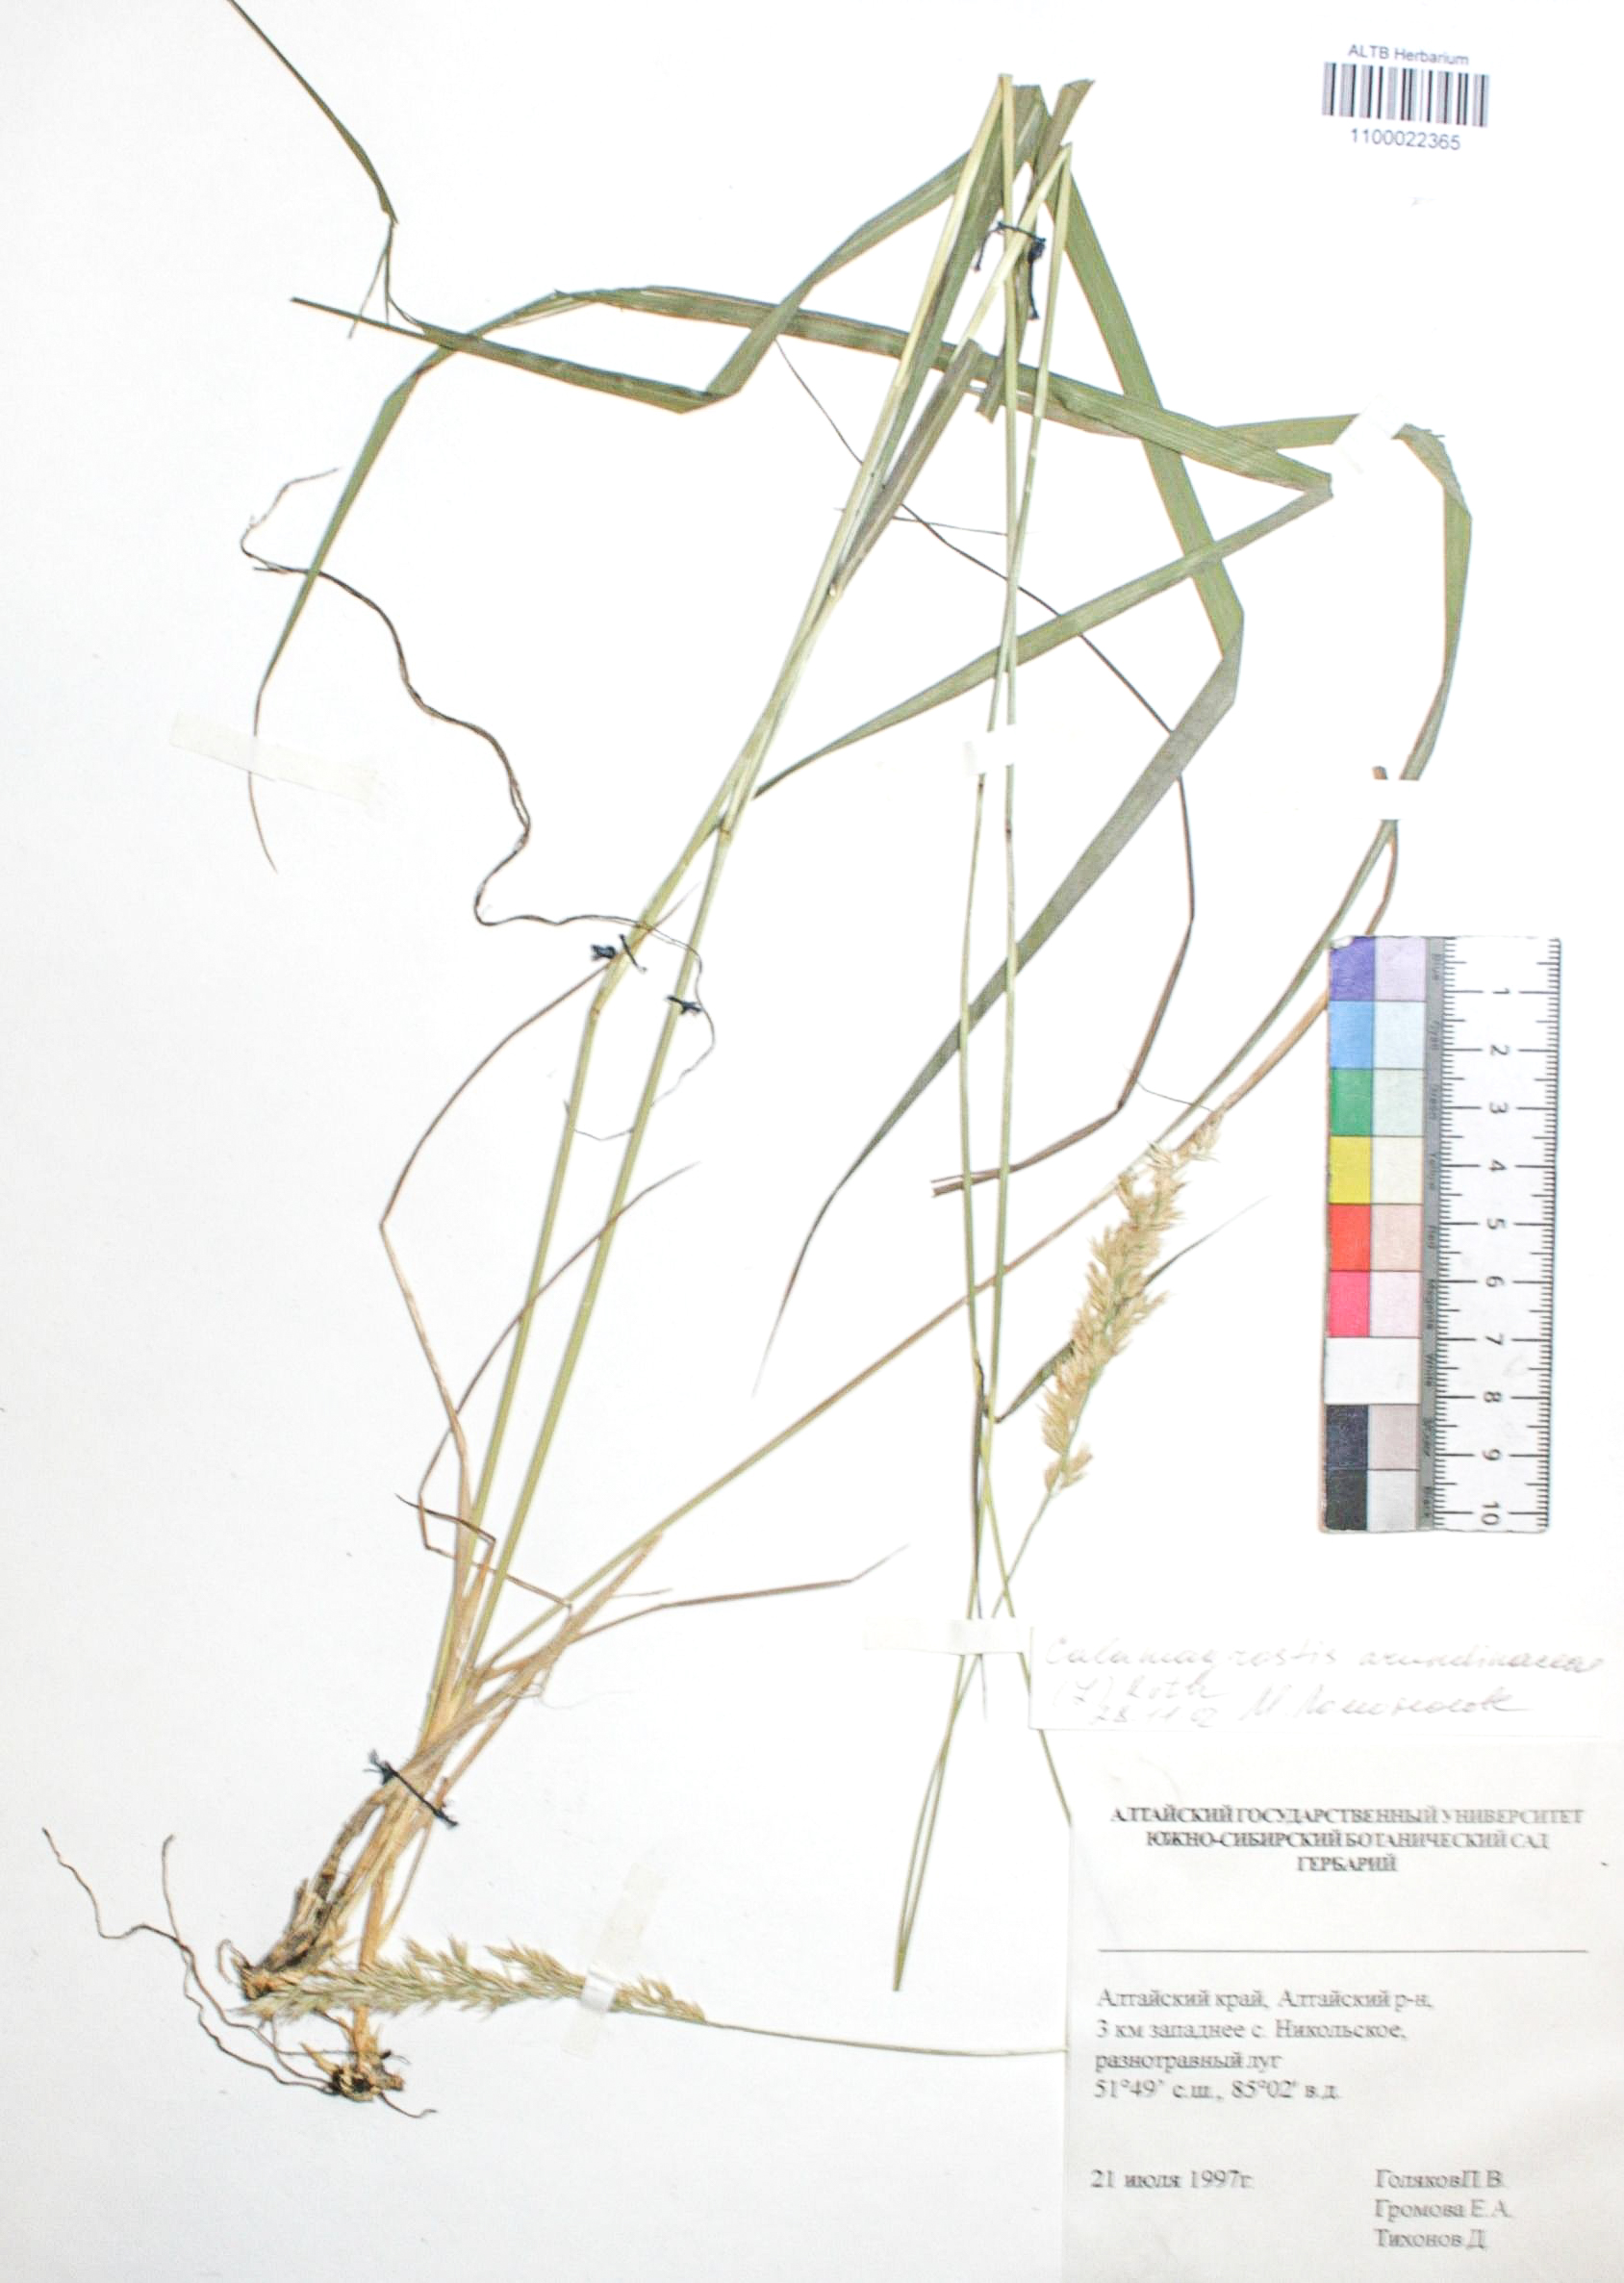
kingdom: Plantae
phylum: Tracheophyta
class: Liliopsida
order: Poales
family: Poaceae
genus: Calamagrostis
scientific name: Calamagrostis arundinacea
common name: Metskastik
